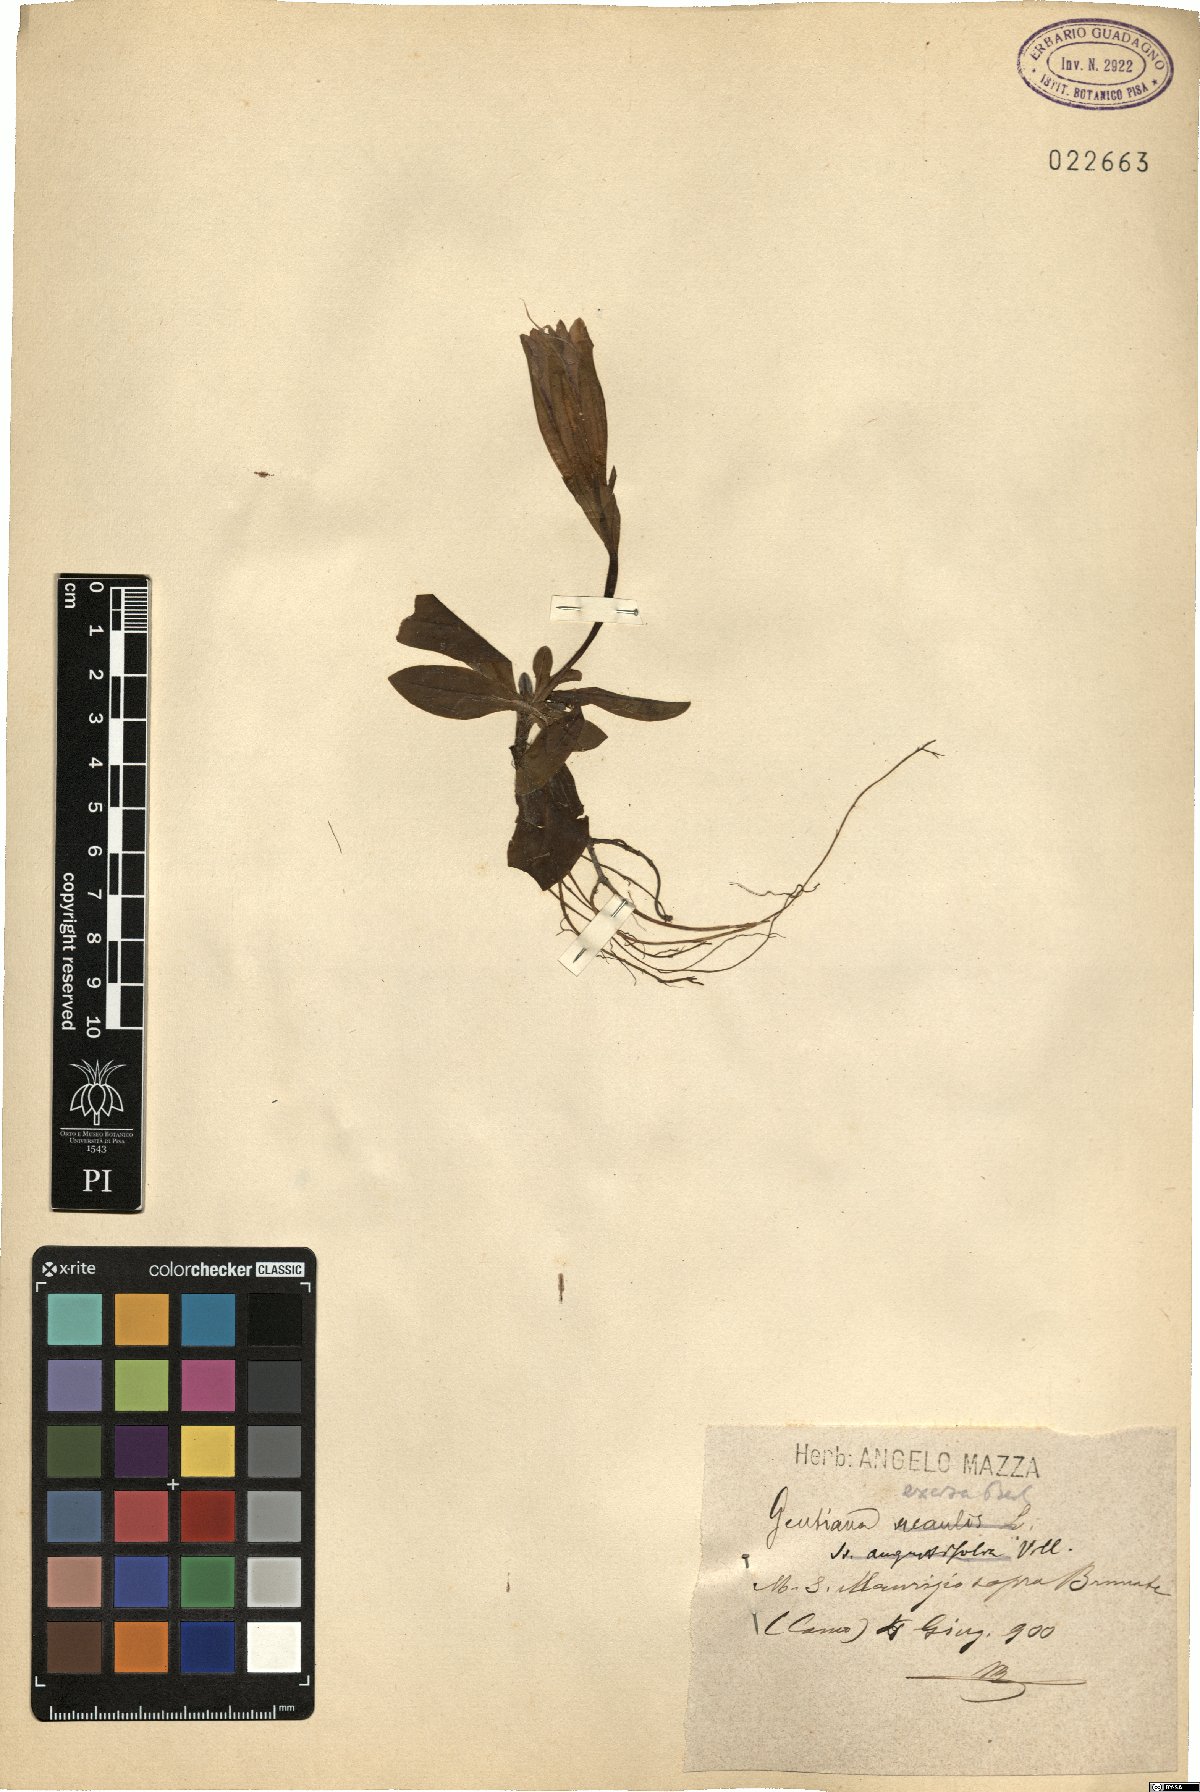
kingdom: Plantae
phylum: Tracheophyta
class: Magnoliopsida
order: Gentianales
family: Gentianaceae
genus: Gentiana
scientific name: Gentiana acaulis
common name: Trumpet gentian
